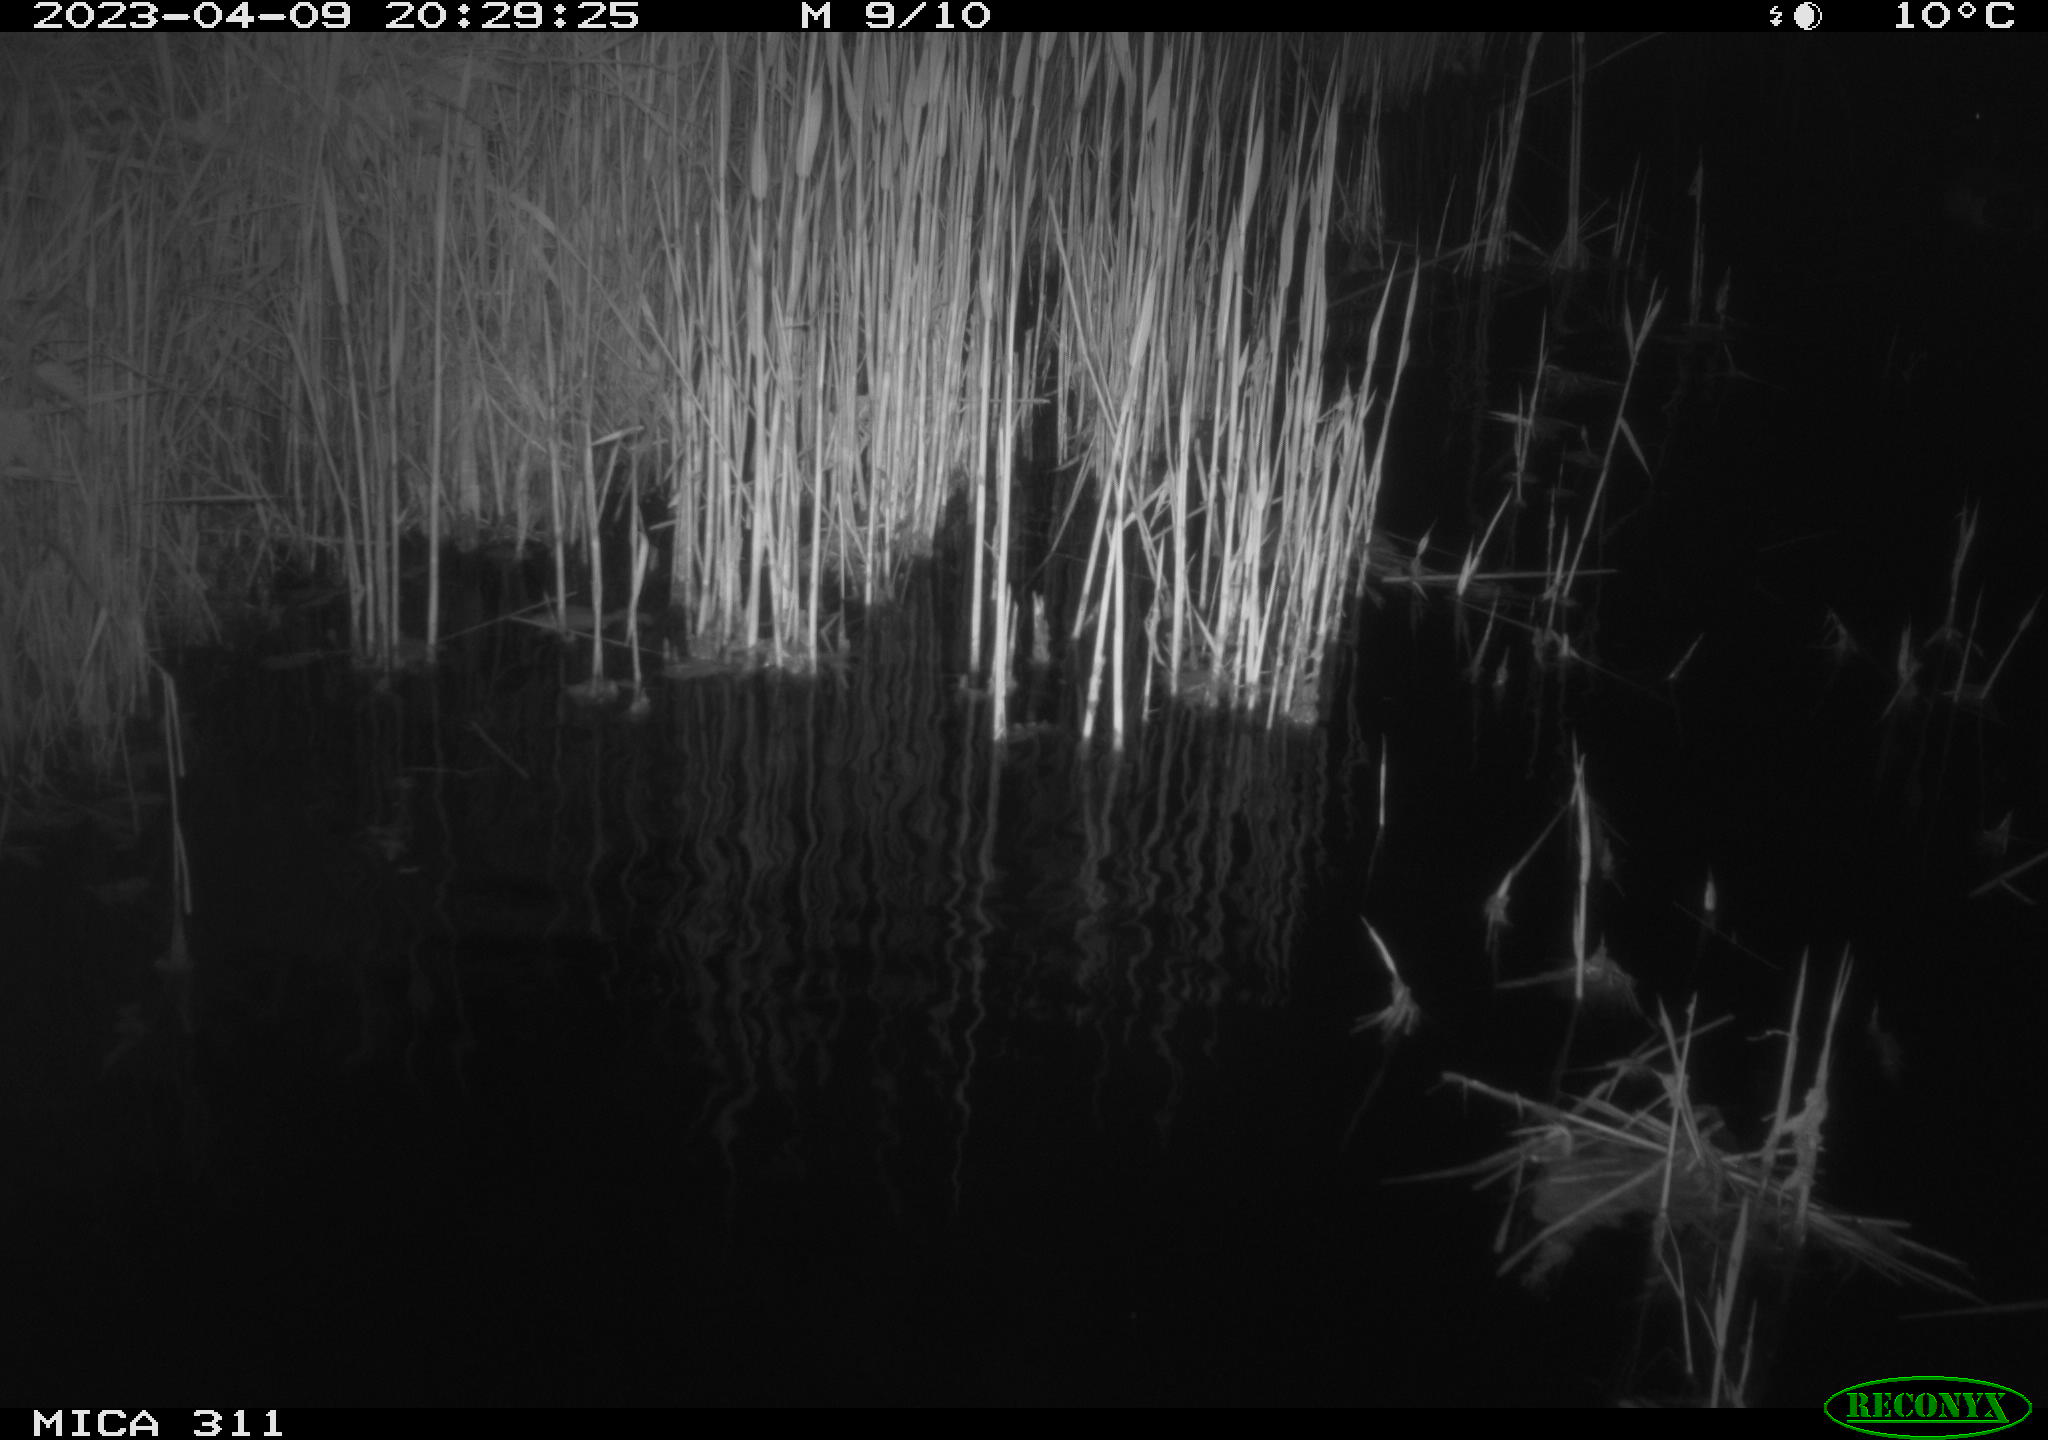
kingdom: Animalia
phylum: Chordata
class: Aves
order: Anseriformes
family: Anatidae
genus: Anas
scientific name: Anas
